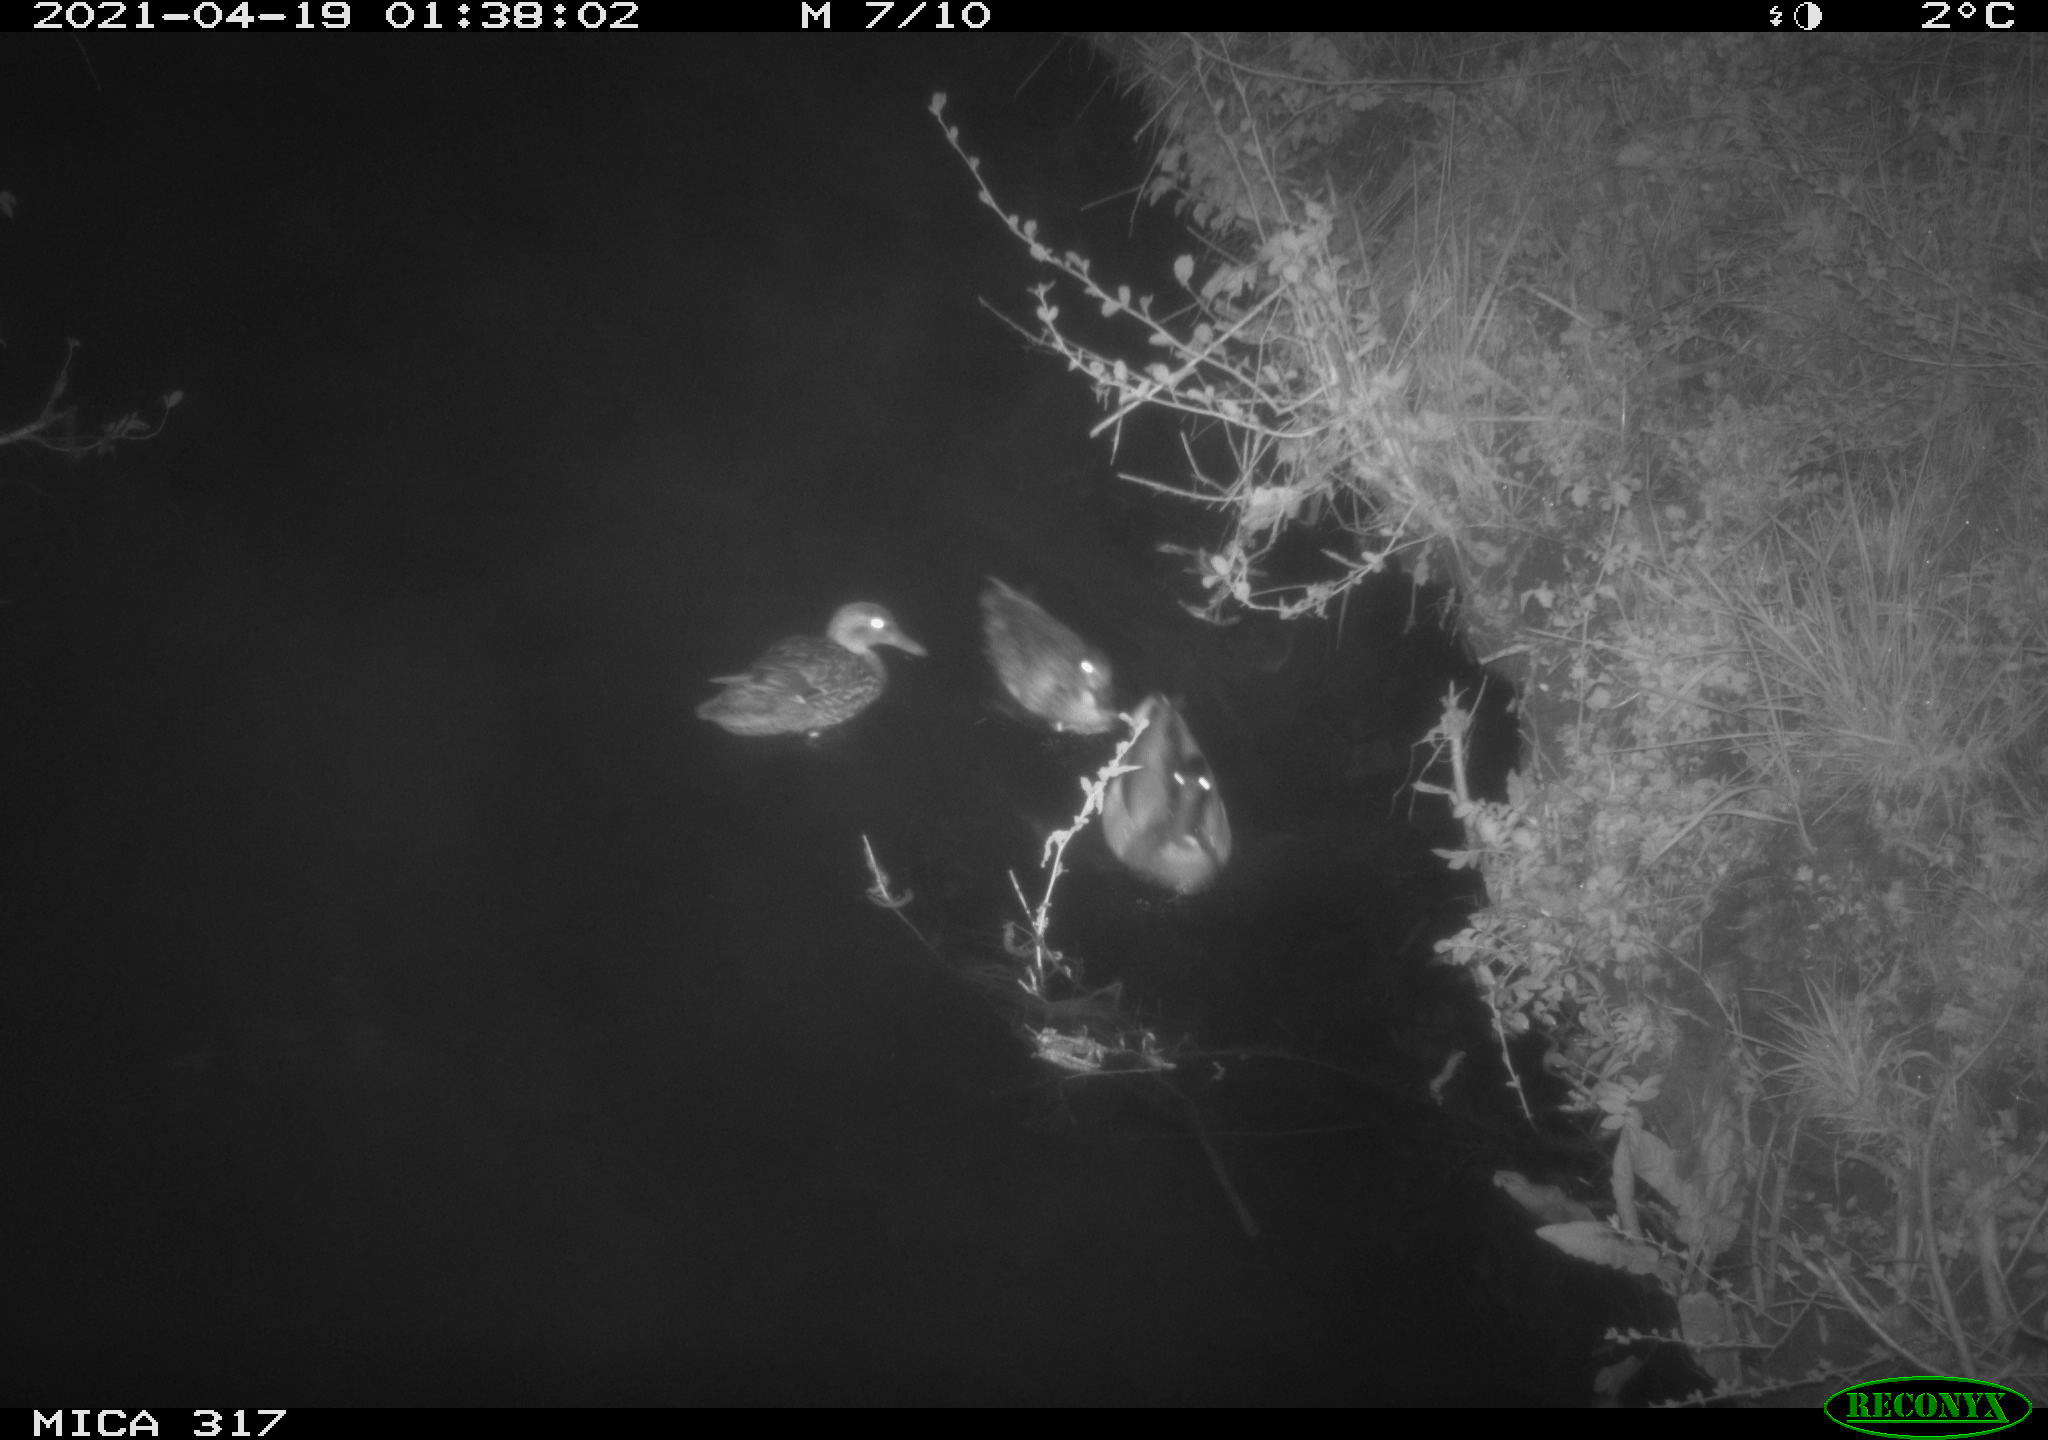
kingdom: Animalia
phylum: Chordata
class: Aves
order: Anseriformes
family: Anatidae
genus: Anas
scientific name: Anas platyrhynchos
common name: Mallard
